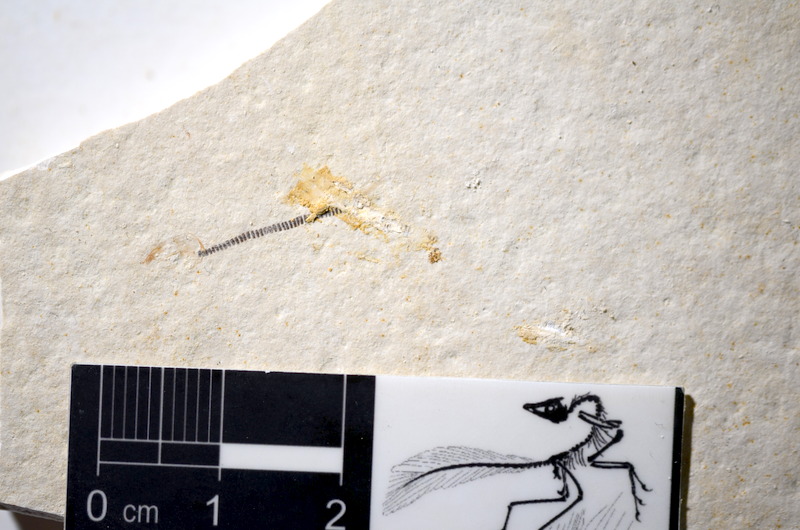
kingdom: Animalia
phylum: Chordata
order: Salmoniformes
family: Orthogonikleithridae
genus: Orthogonikleithrus
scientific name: Orthogonikleithrus hoelli
